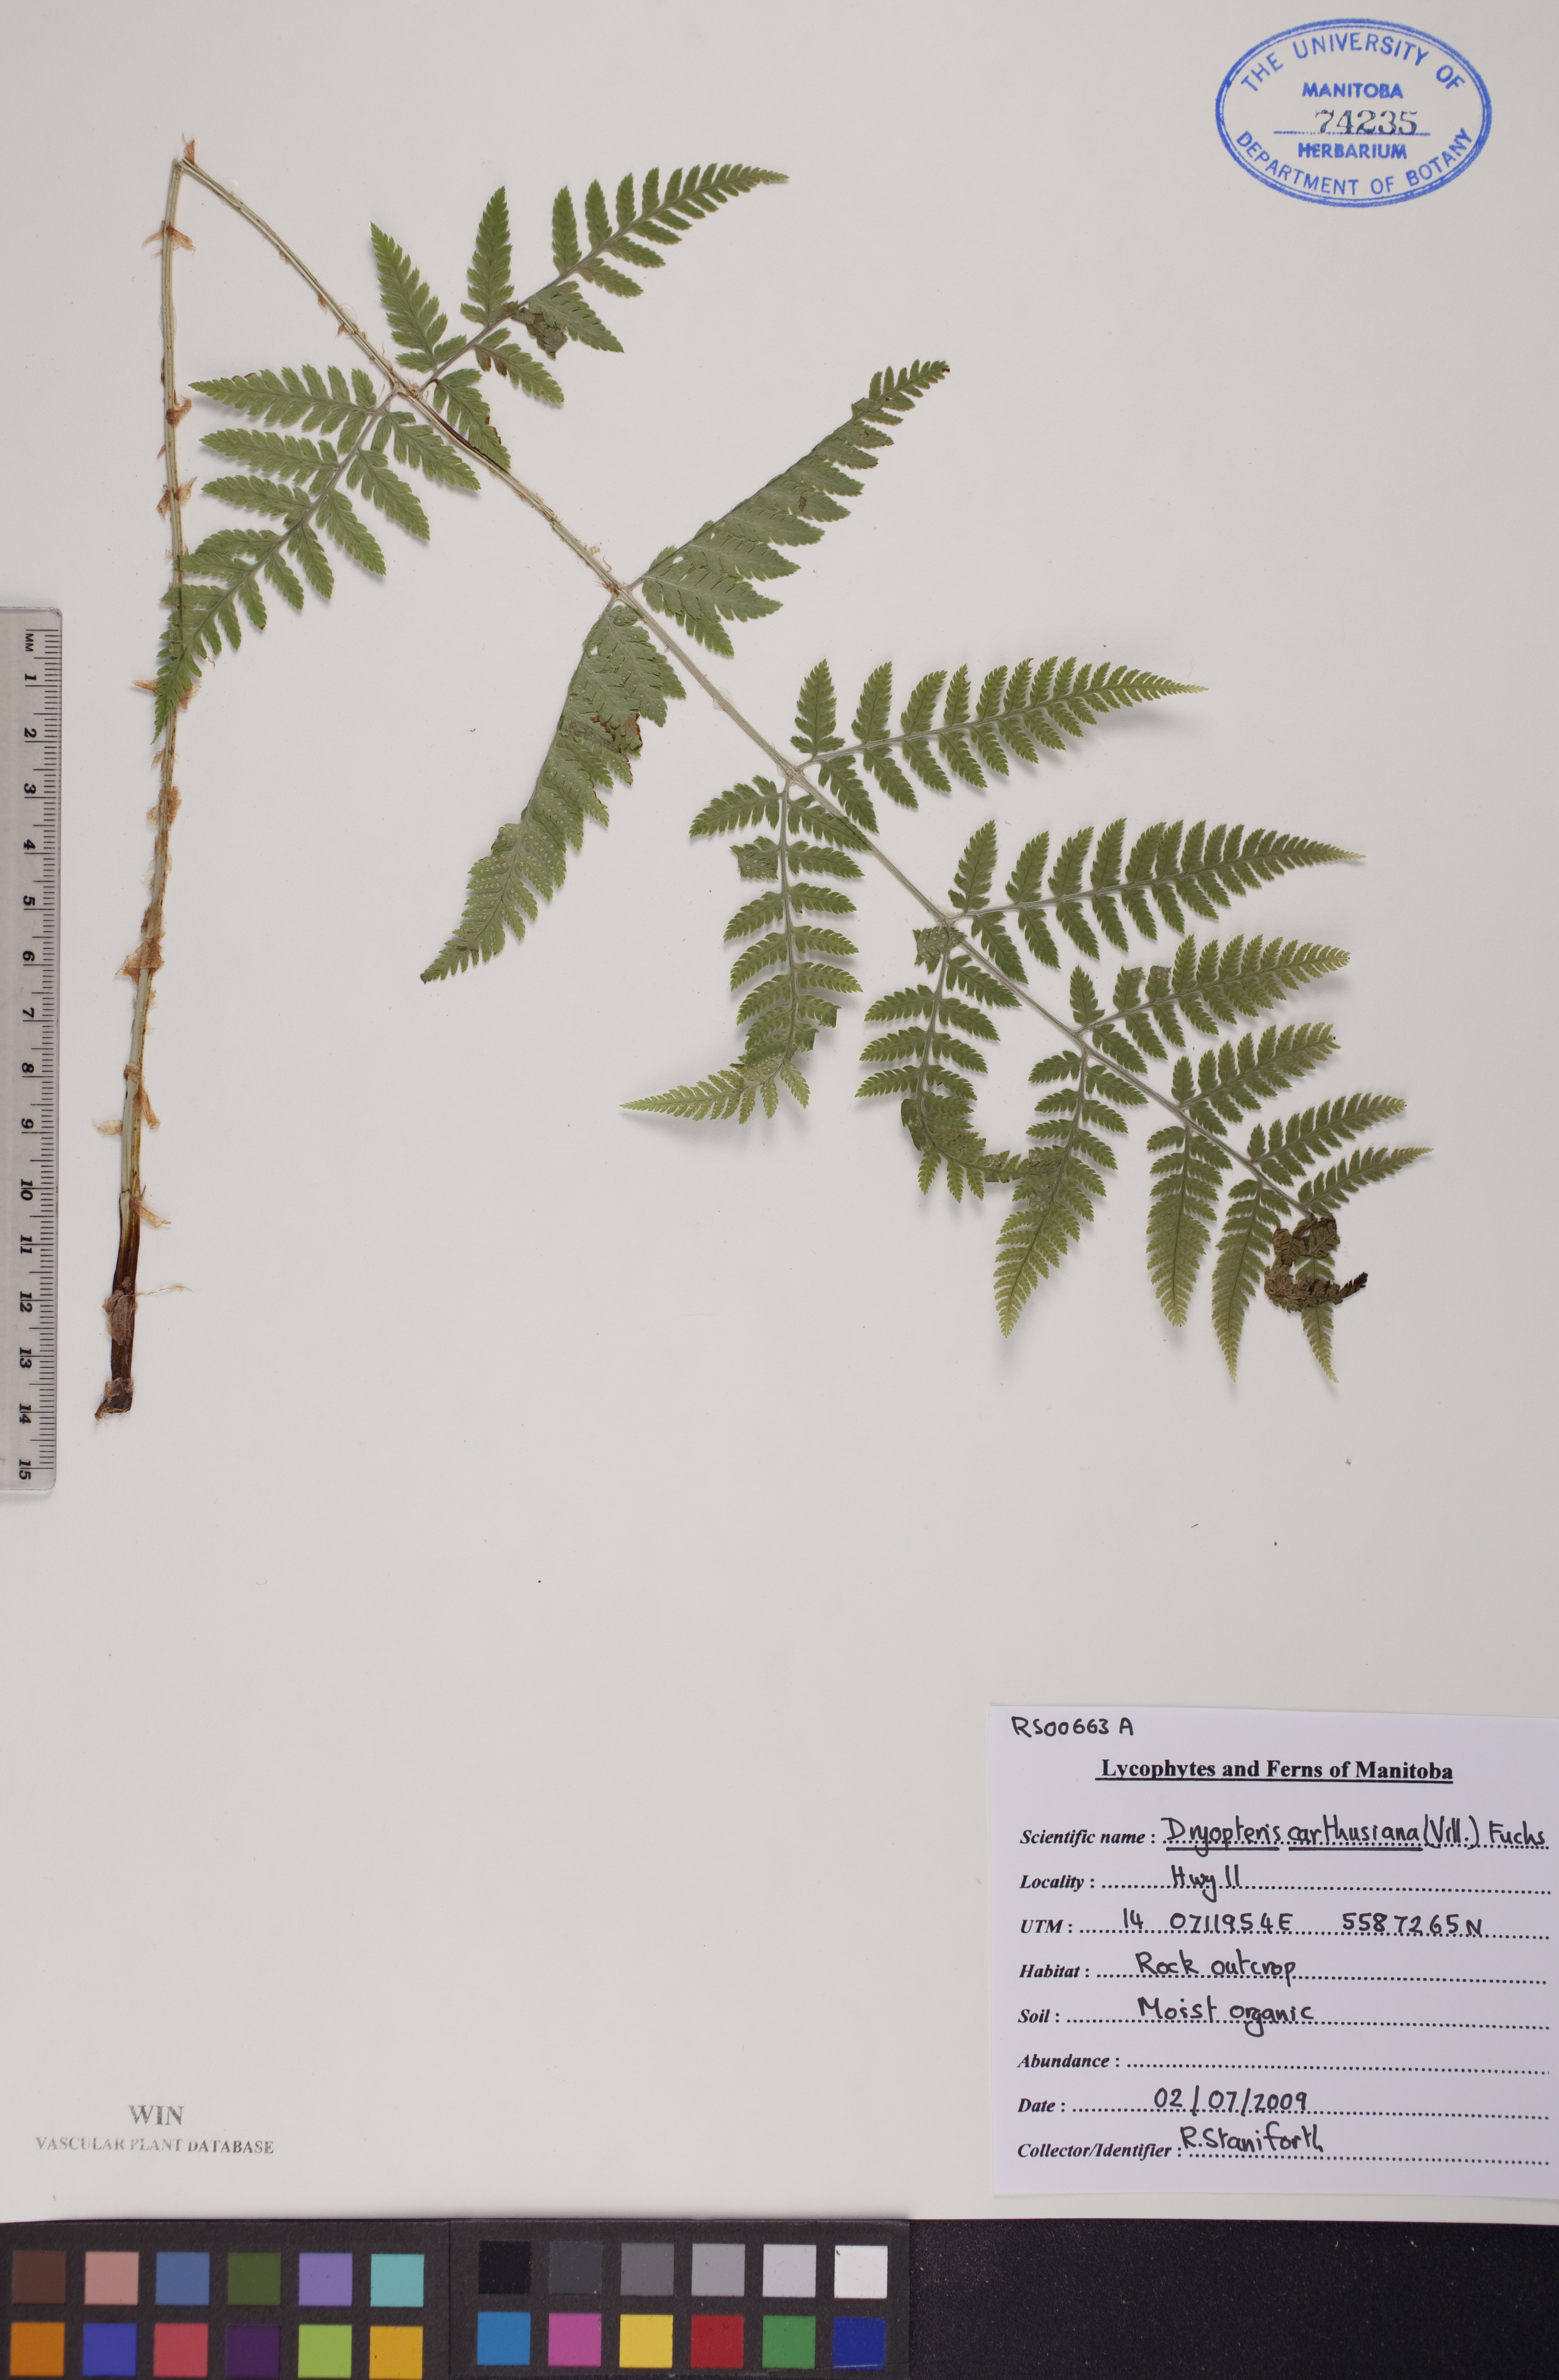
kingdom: Plantae
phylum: Tracheophyta
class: Polypodiopsida
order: Polypodiales
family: Dryopteridaceae
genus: Dryopteris
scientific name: Dryopteris carthusiana
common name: Narrow buckler-fern
